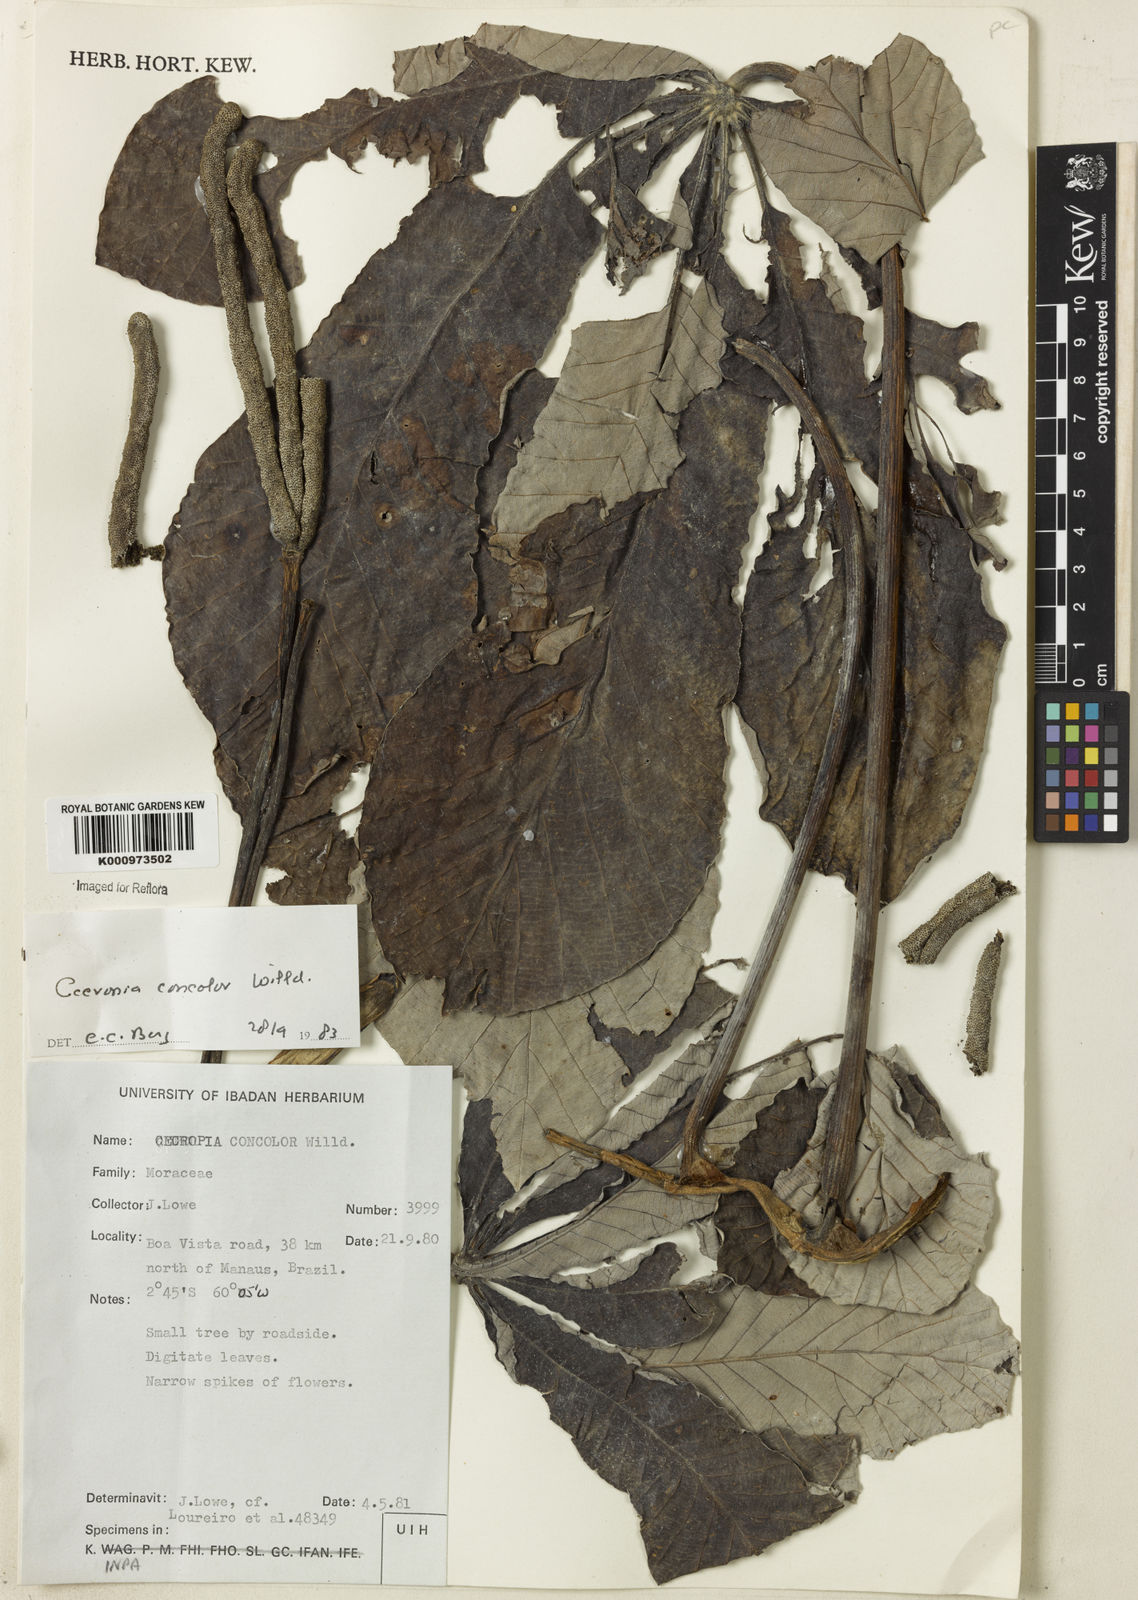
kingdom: Plantae
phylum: Tracheophyta
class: Magnoliopsida
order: Rosales
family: Urticaceae
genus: Cecropia
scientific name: Cecropia concolor
